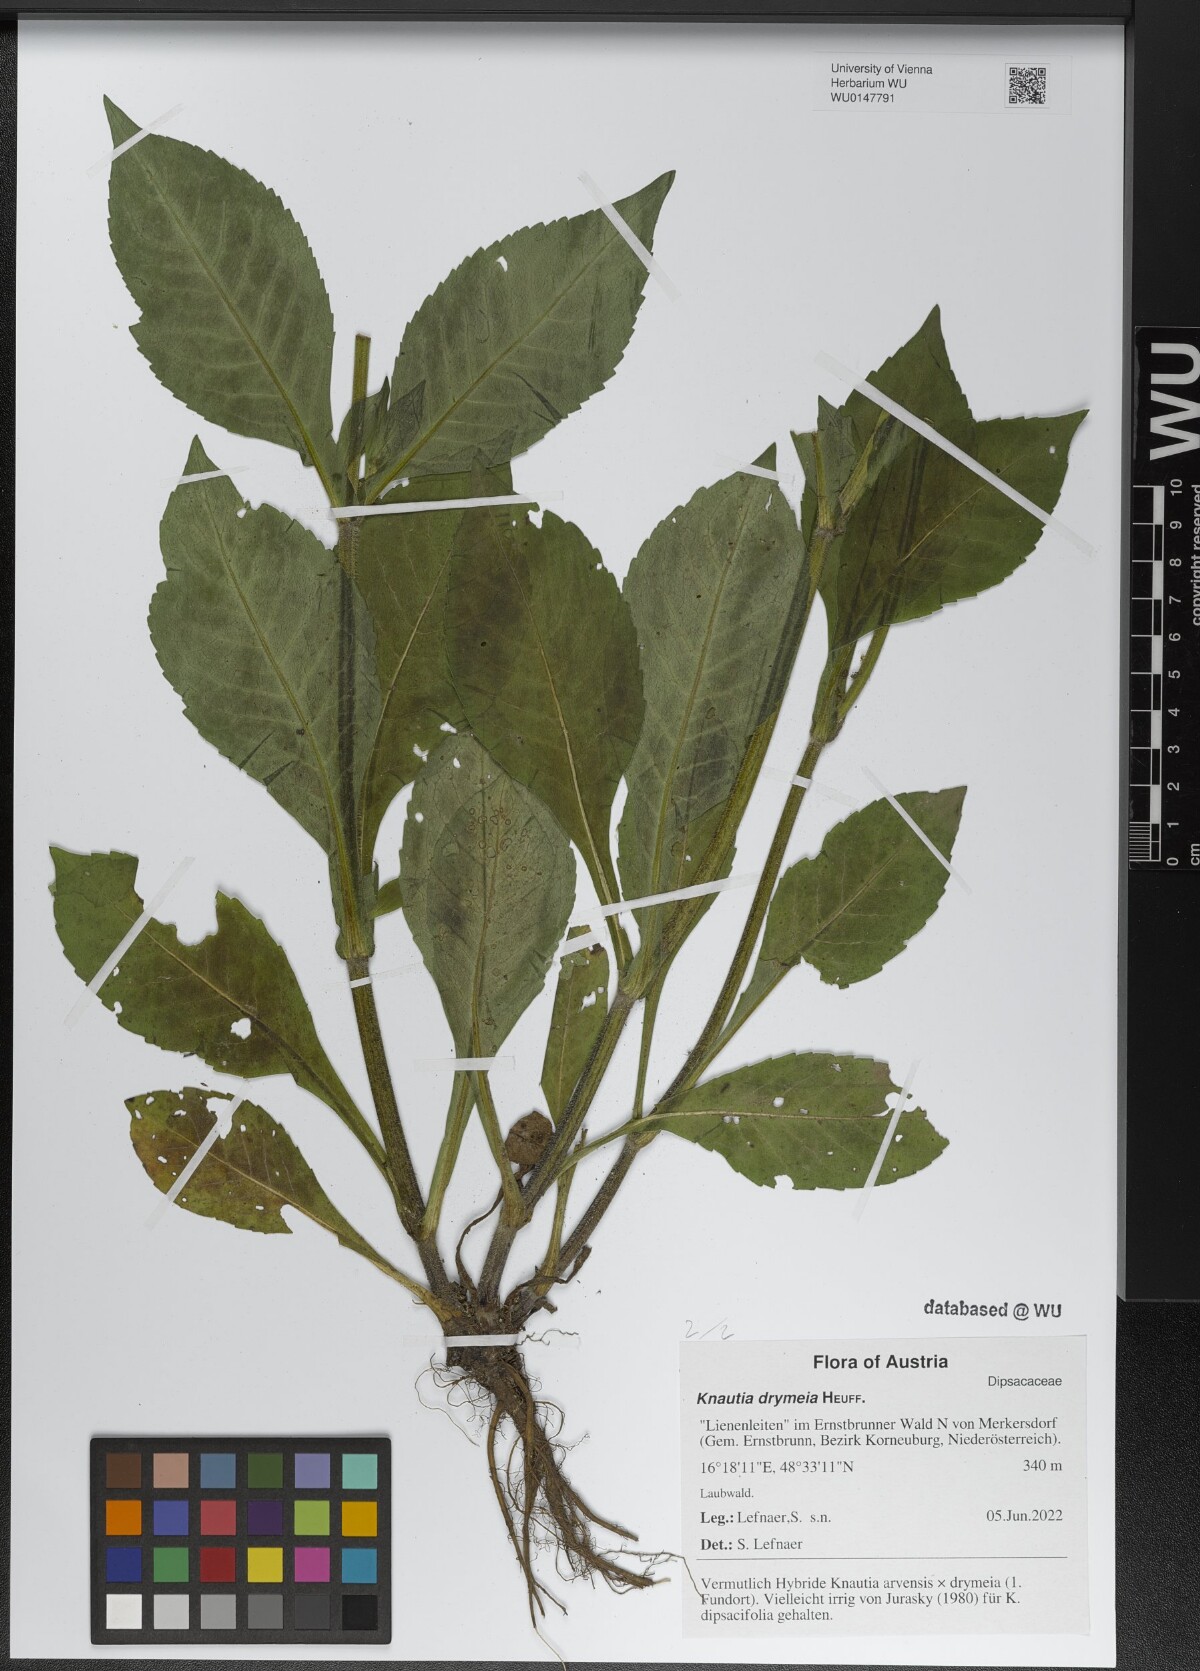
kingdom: Plantae
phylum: Tracheophyta
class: Magnoliopsida
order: Dipsacales
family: Caprifoliaceae
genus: Knautia
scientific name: Knautia drymeia
